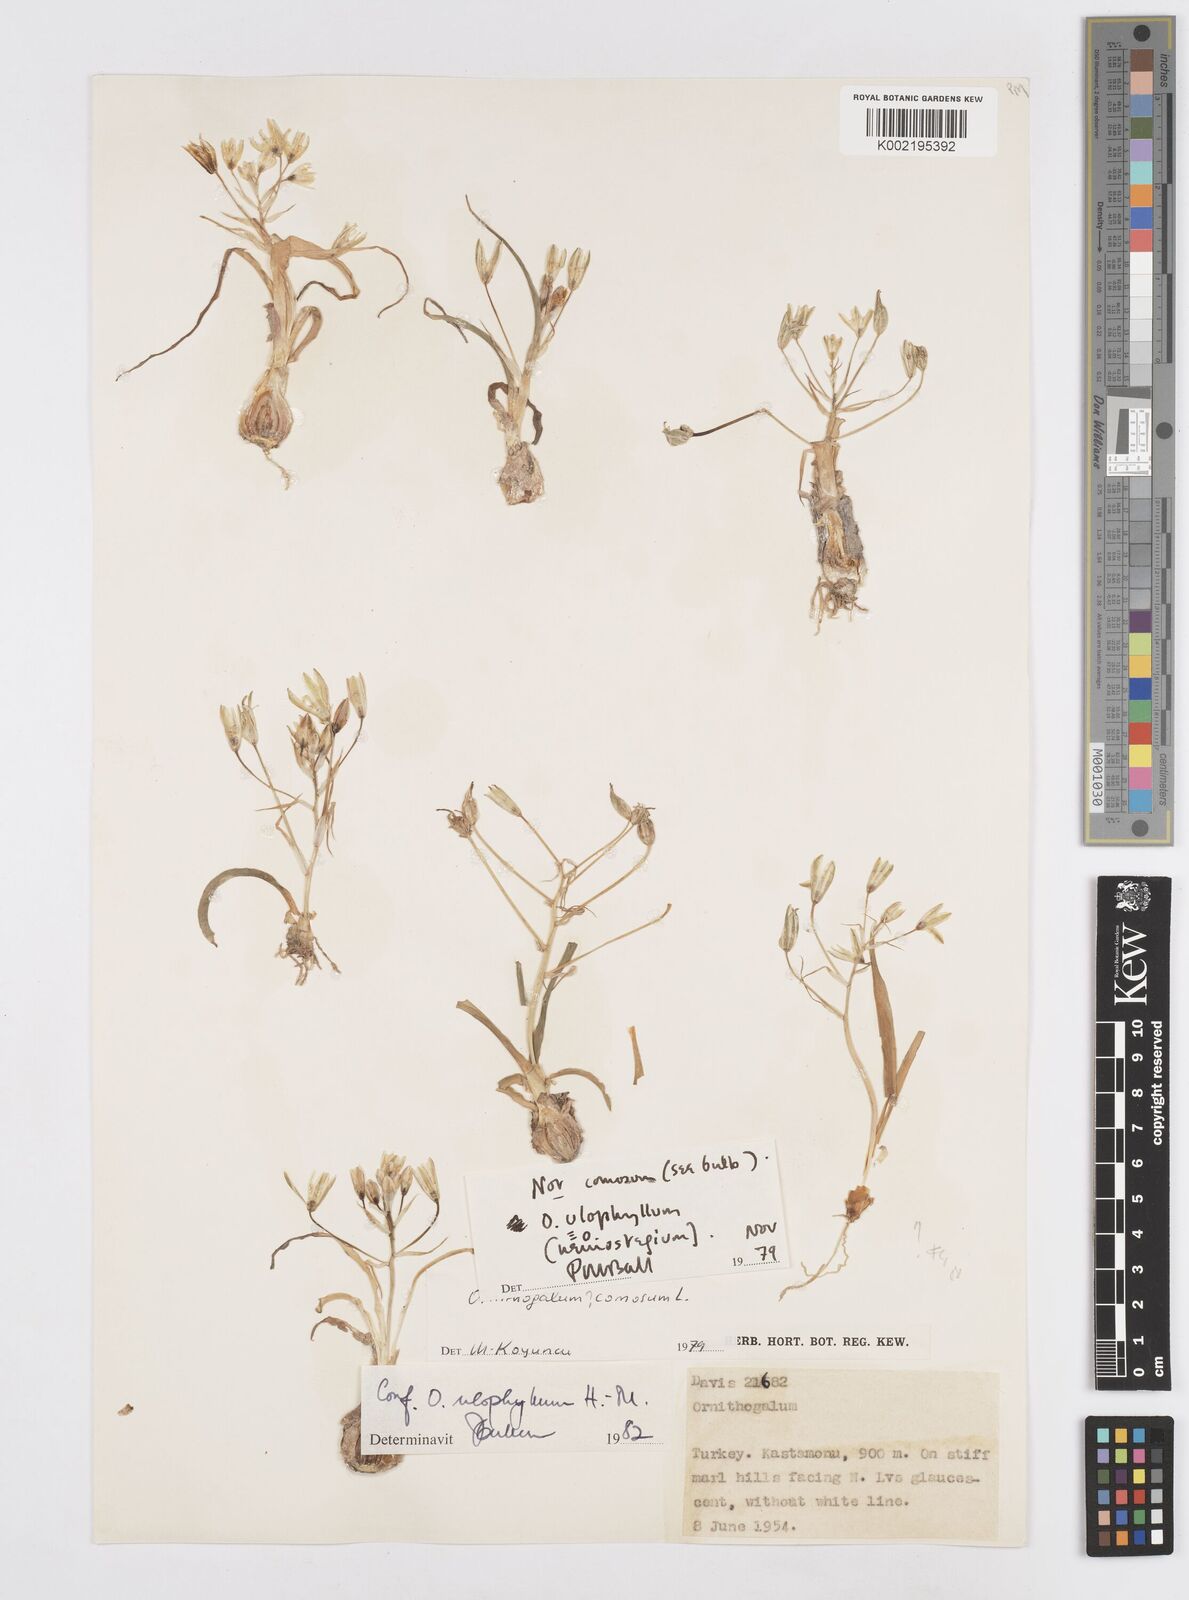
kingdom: Plantae
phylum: Tracheophyta
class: Liliopsida
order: Asparagales
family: Asparagaceae
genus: Ornithogalum
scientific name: Ornithogalum neurostegium
